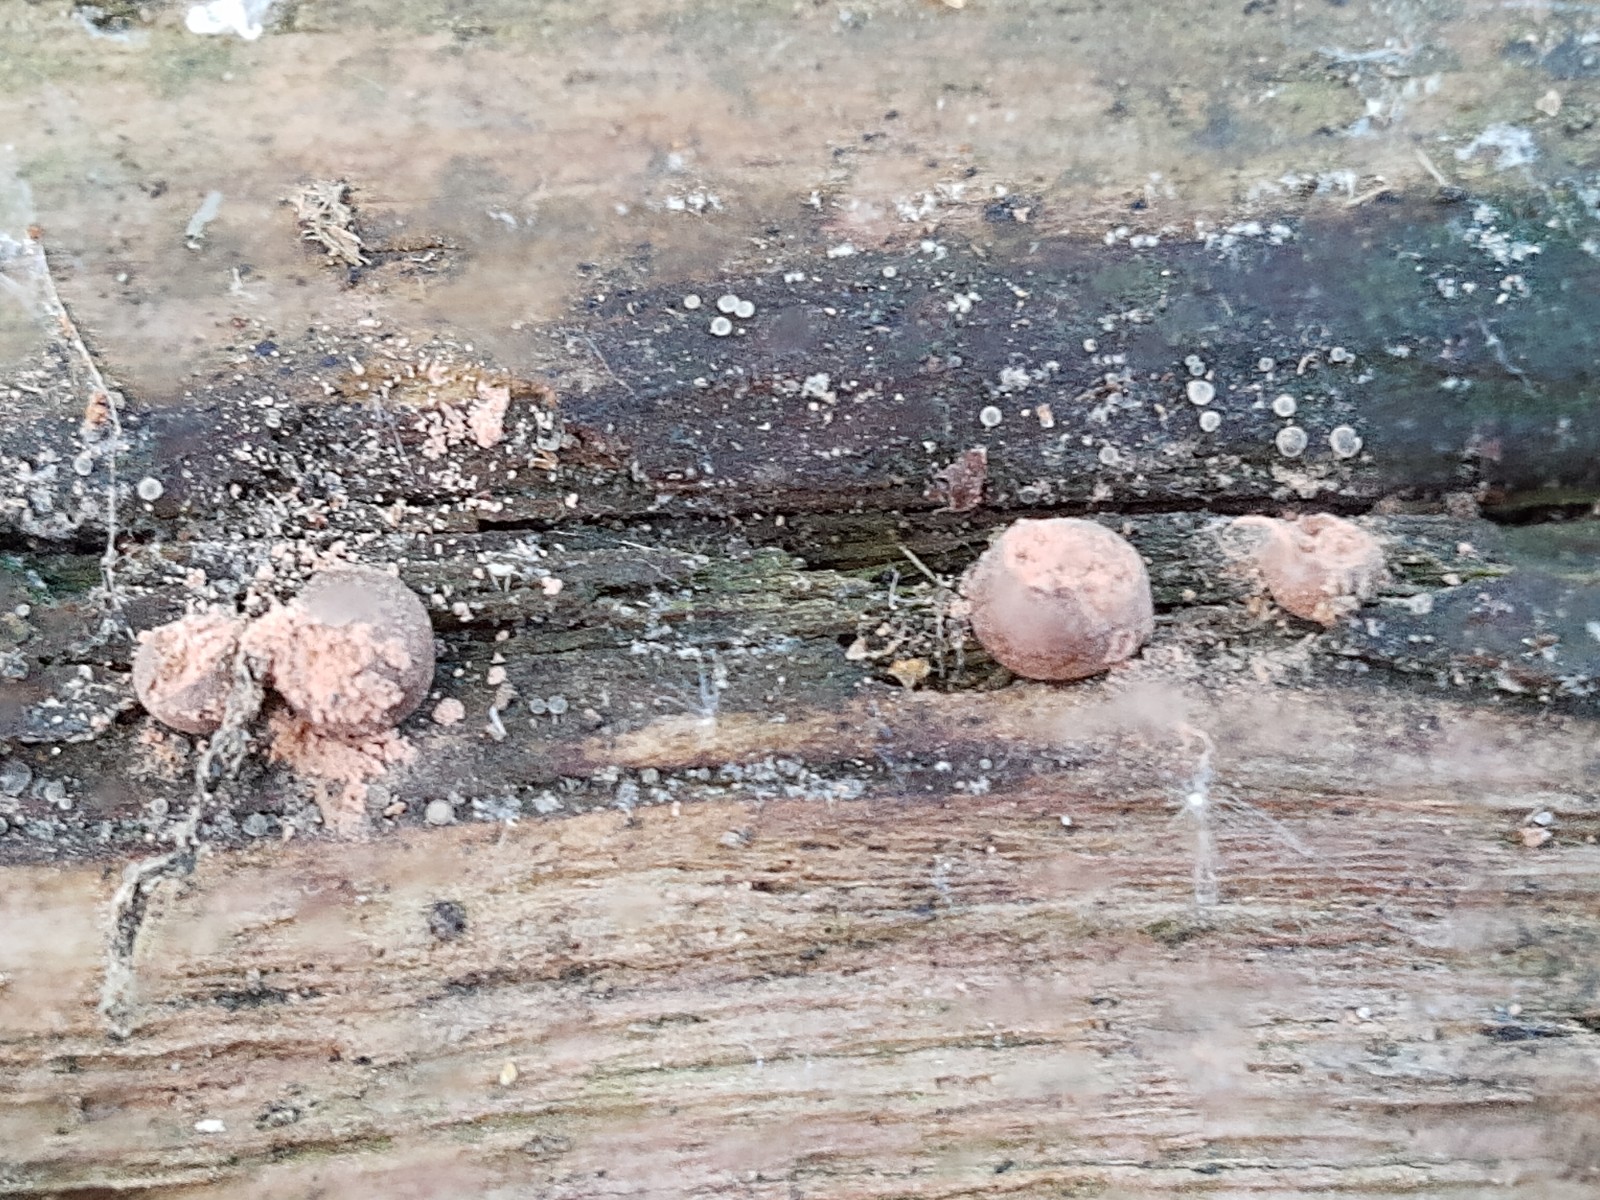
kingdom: Protozoa
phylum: Mycetozoa
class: Myxomycetes
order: Cribrariales
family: Tubiferaceae
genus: Lycogala
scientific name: Lycogala epidendrum
